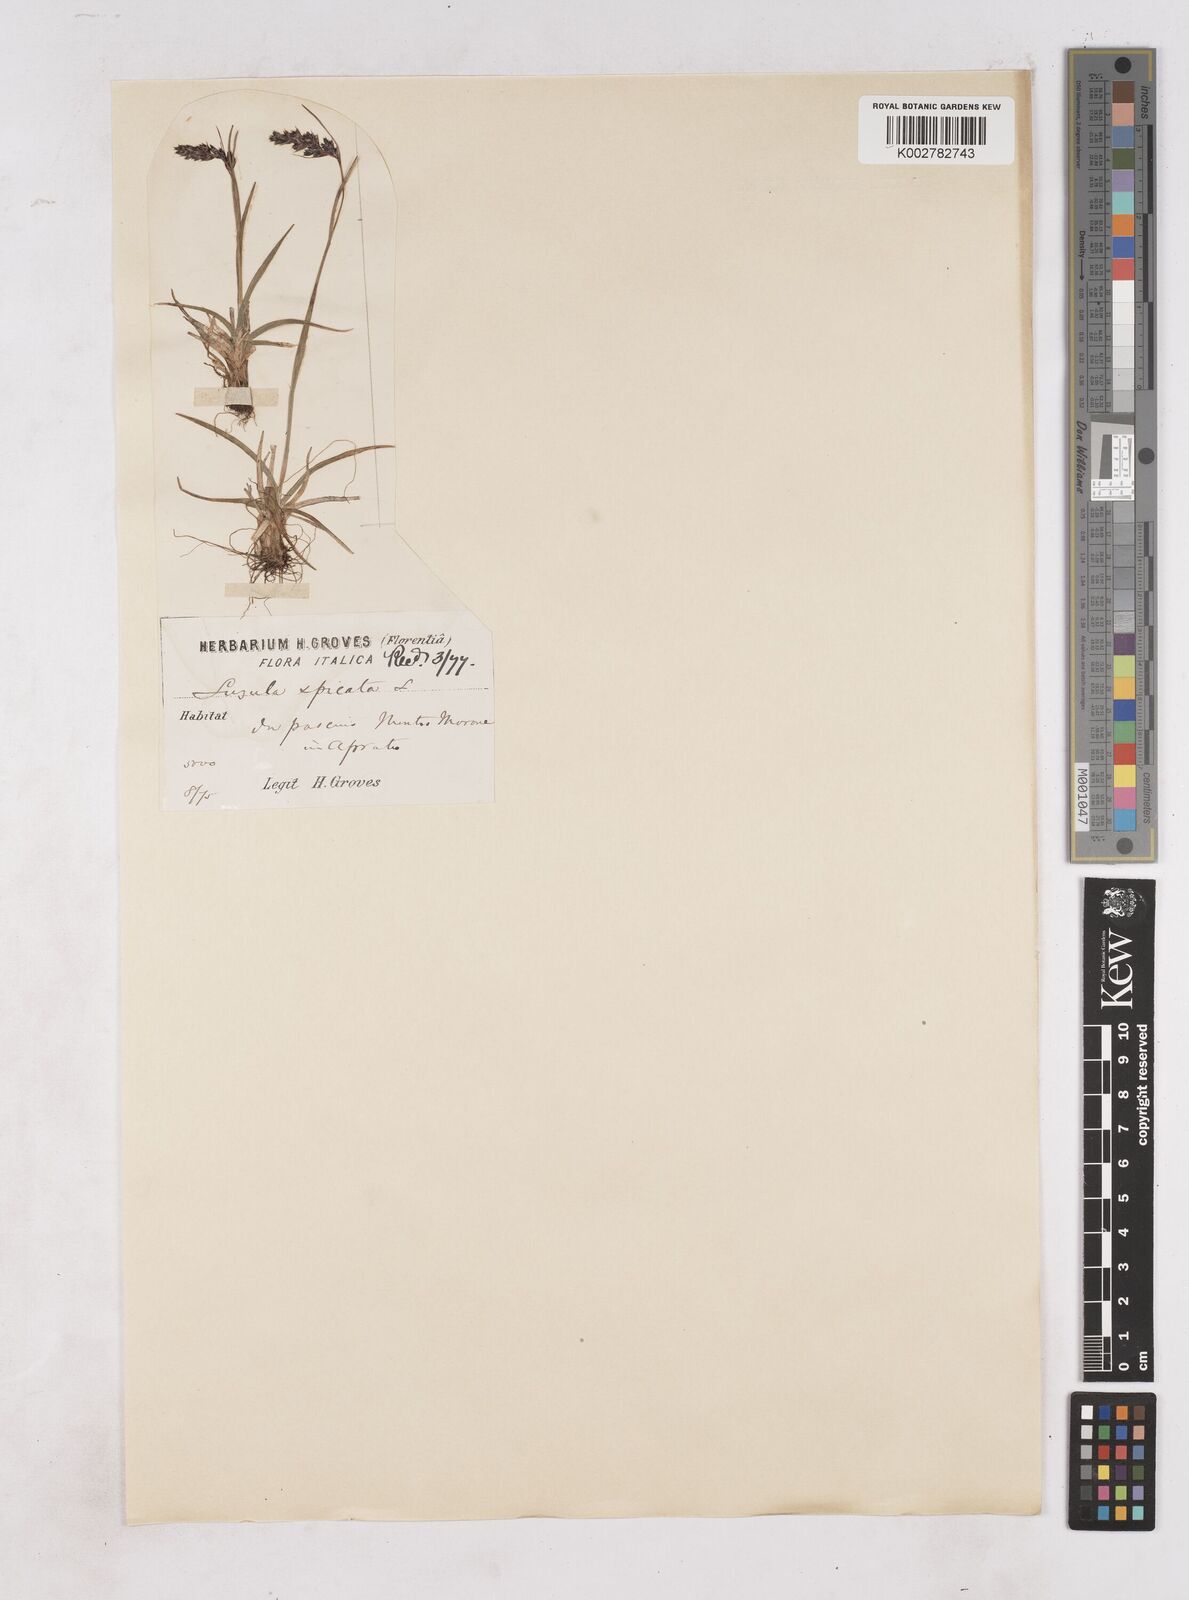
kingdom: Plantae
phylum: Tracheophyta
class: Liliopsida
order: Poales
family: Juncaceae
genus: Luzula
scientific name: Luzula spicata
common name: Spiked wood-rush
